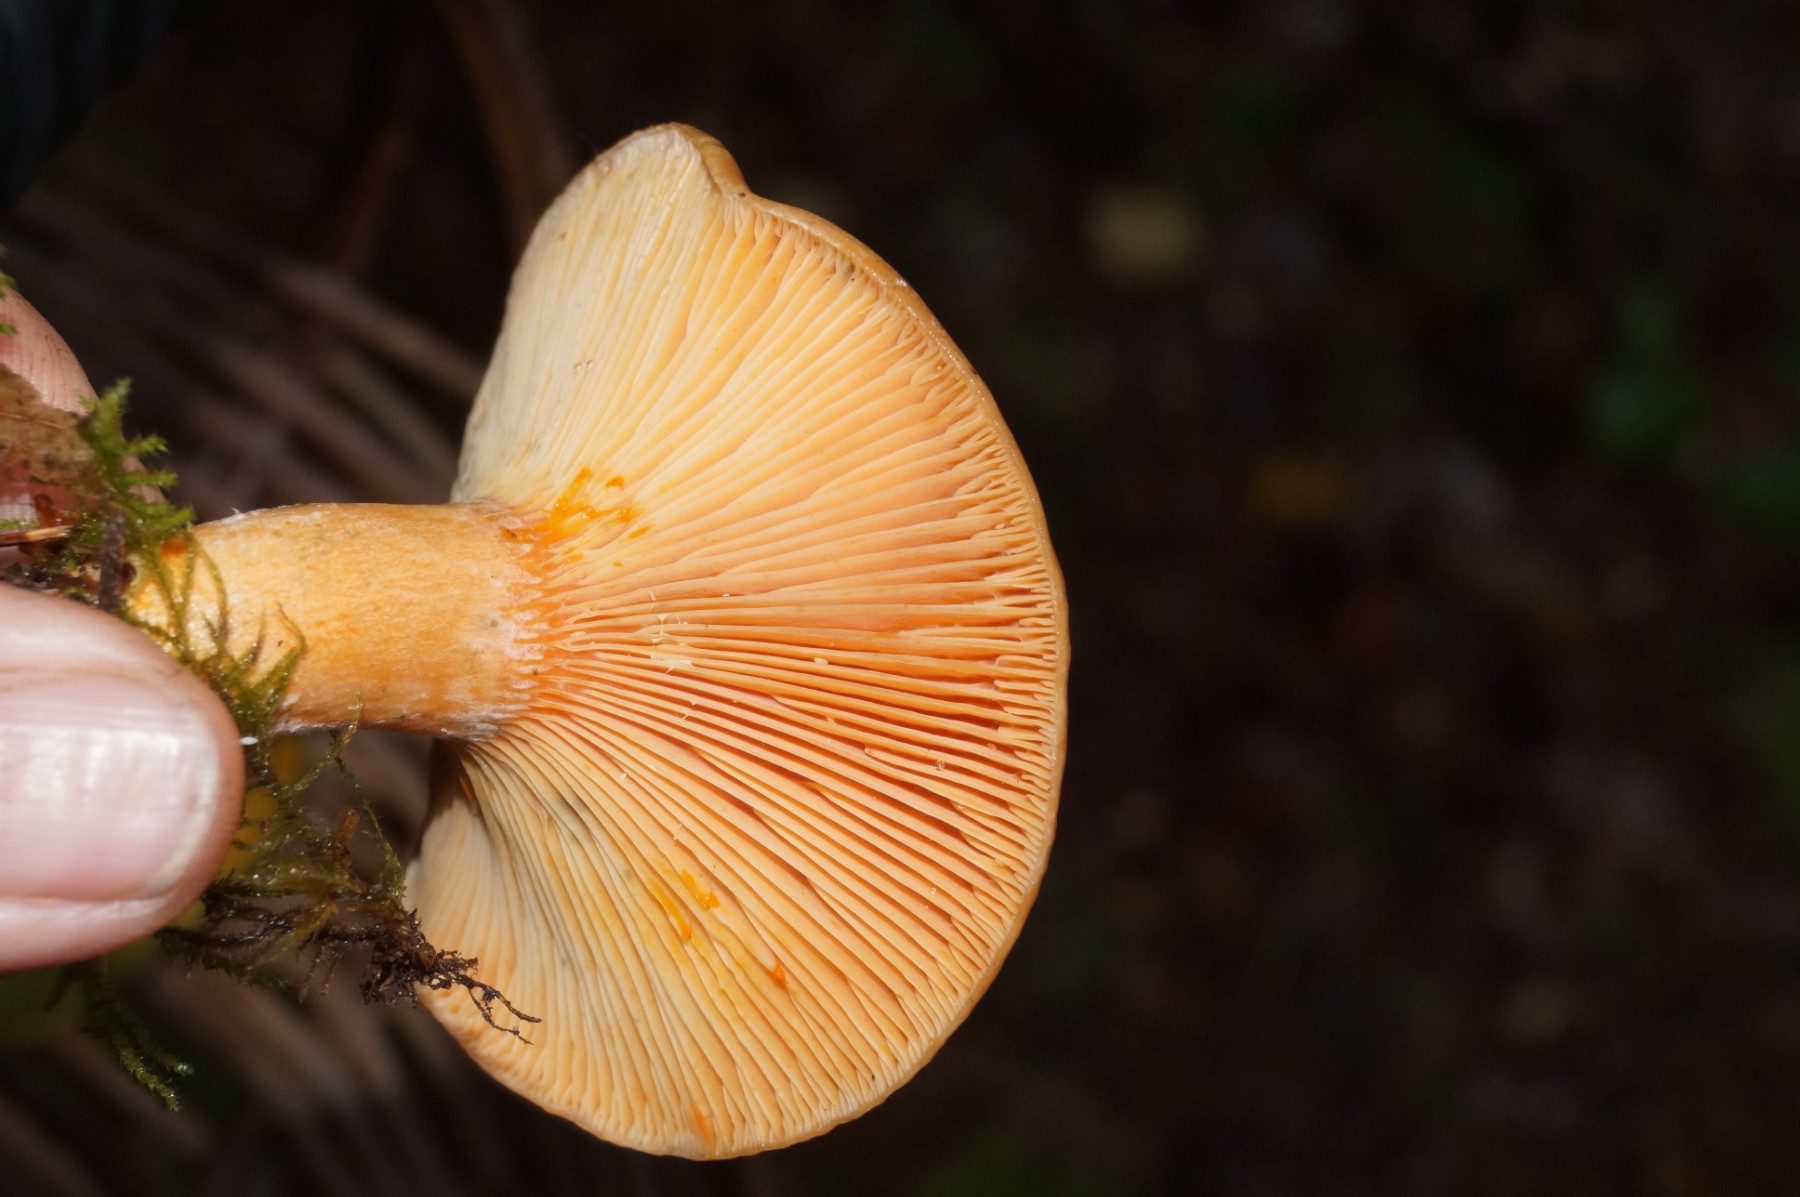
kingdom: Fungi
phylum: Basidiomycota
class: Agaricomycetes
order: Russulales
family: Russulaceae
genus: Lactarius
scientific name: Lactarius deterrimus
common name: gran-mælkehat
